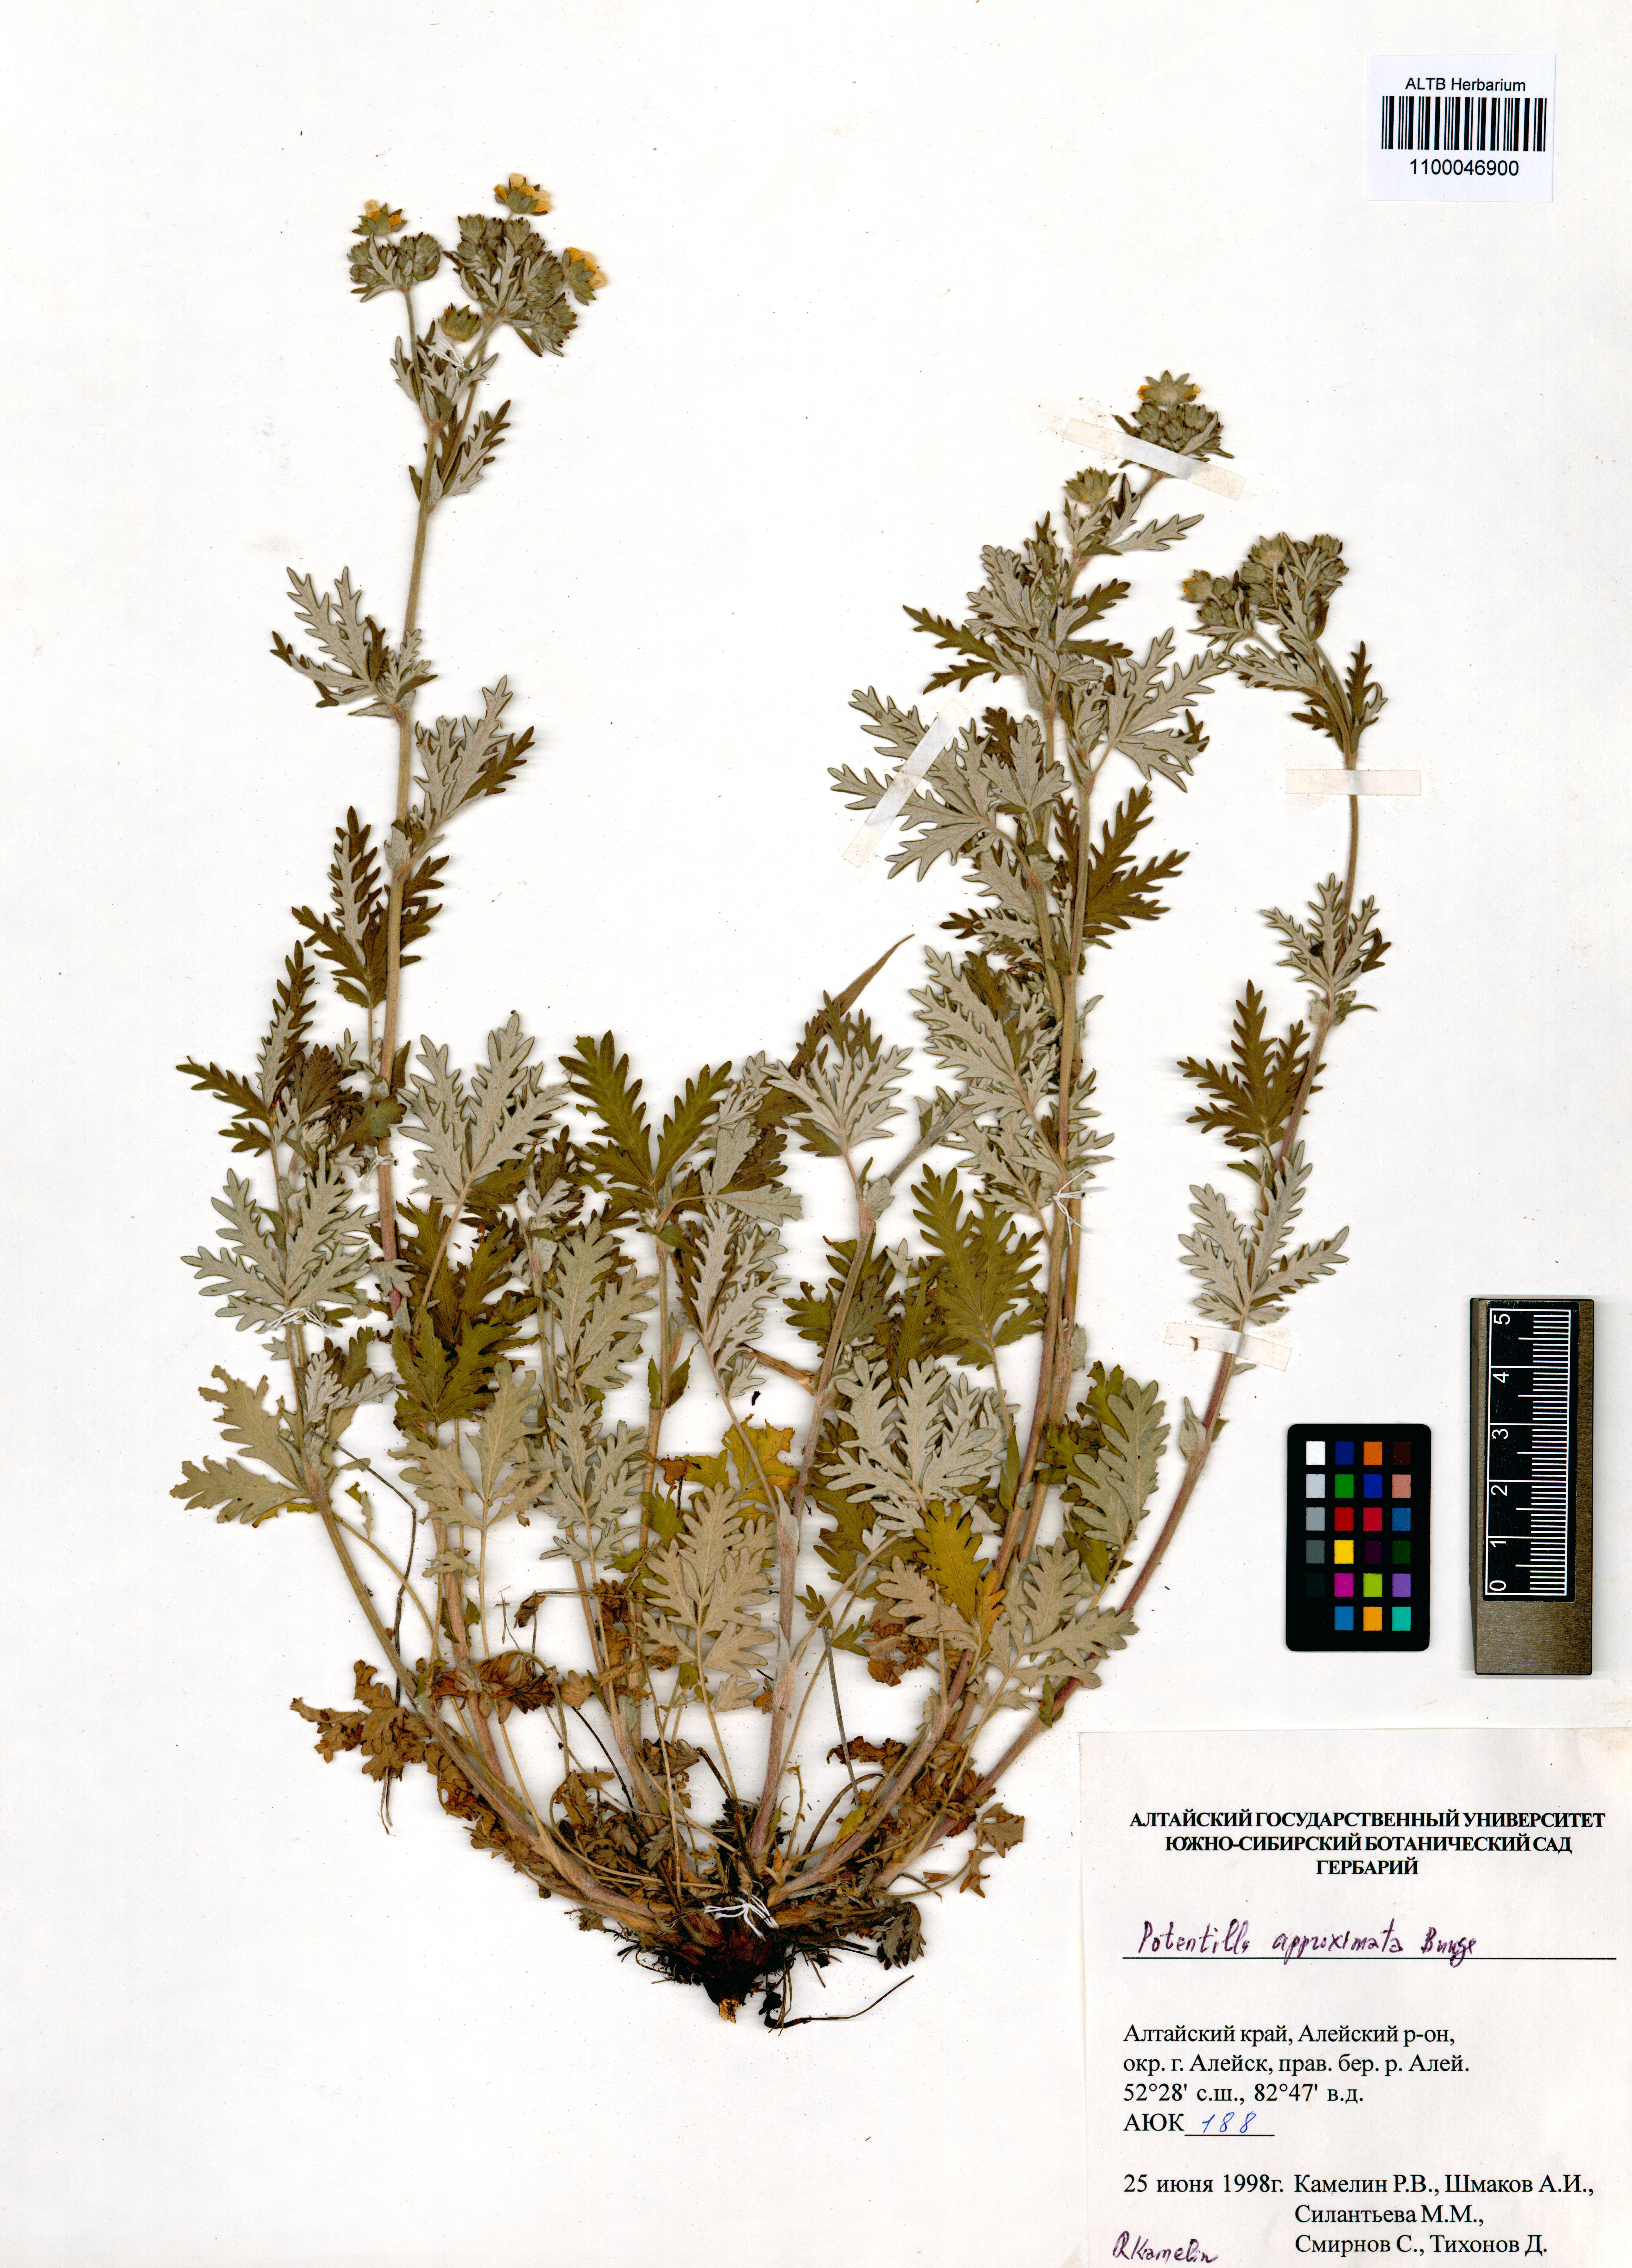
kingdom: Plantae
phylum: Tracheophyta
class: Magnoliopsida
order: Rosales
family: Rosaceae
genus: Potentilla
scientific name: Potentilla conferta
